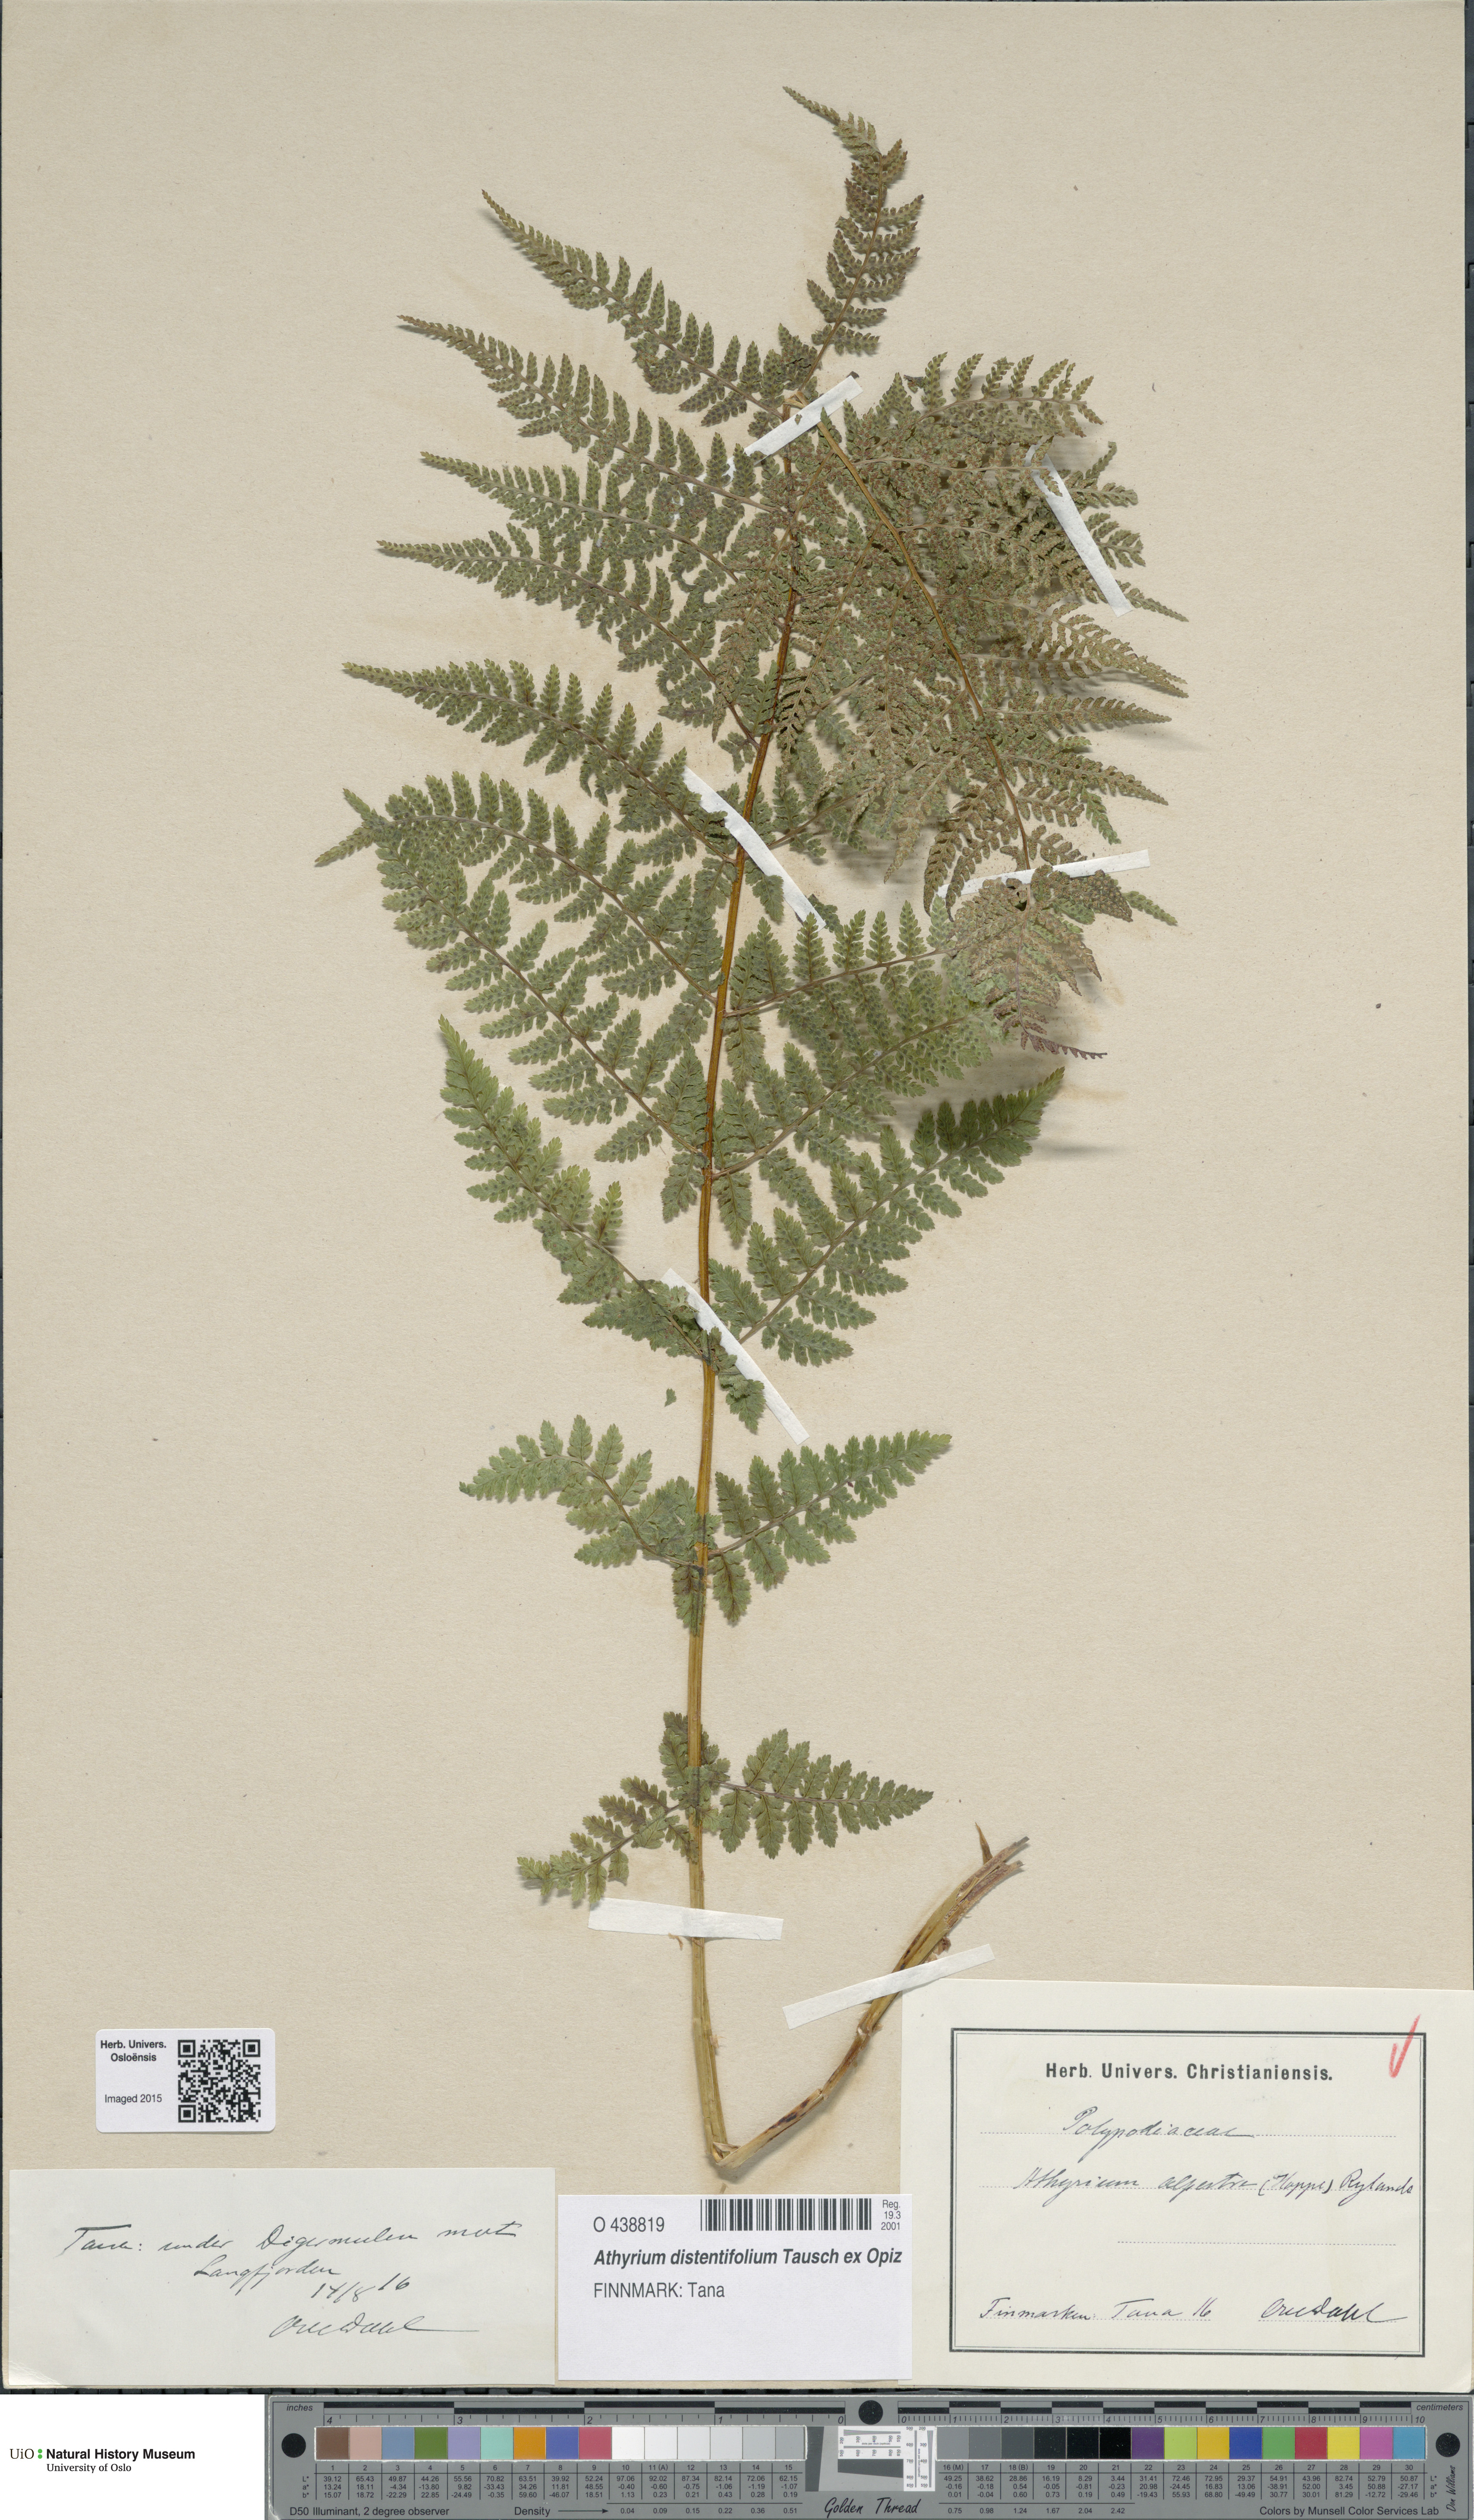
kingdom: Plantae
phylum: Tracheophyta
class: Polypodiopsida
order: Polypodiales
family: Athyriaceae
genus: Pseudathyrium
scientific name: Pseudathyrium alpestre
